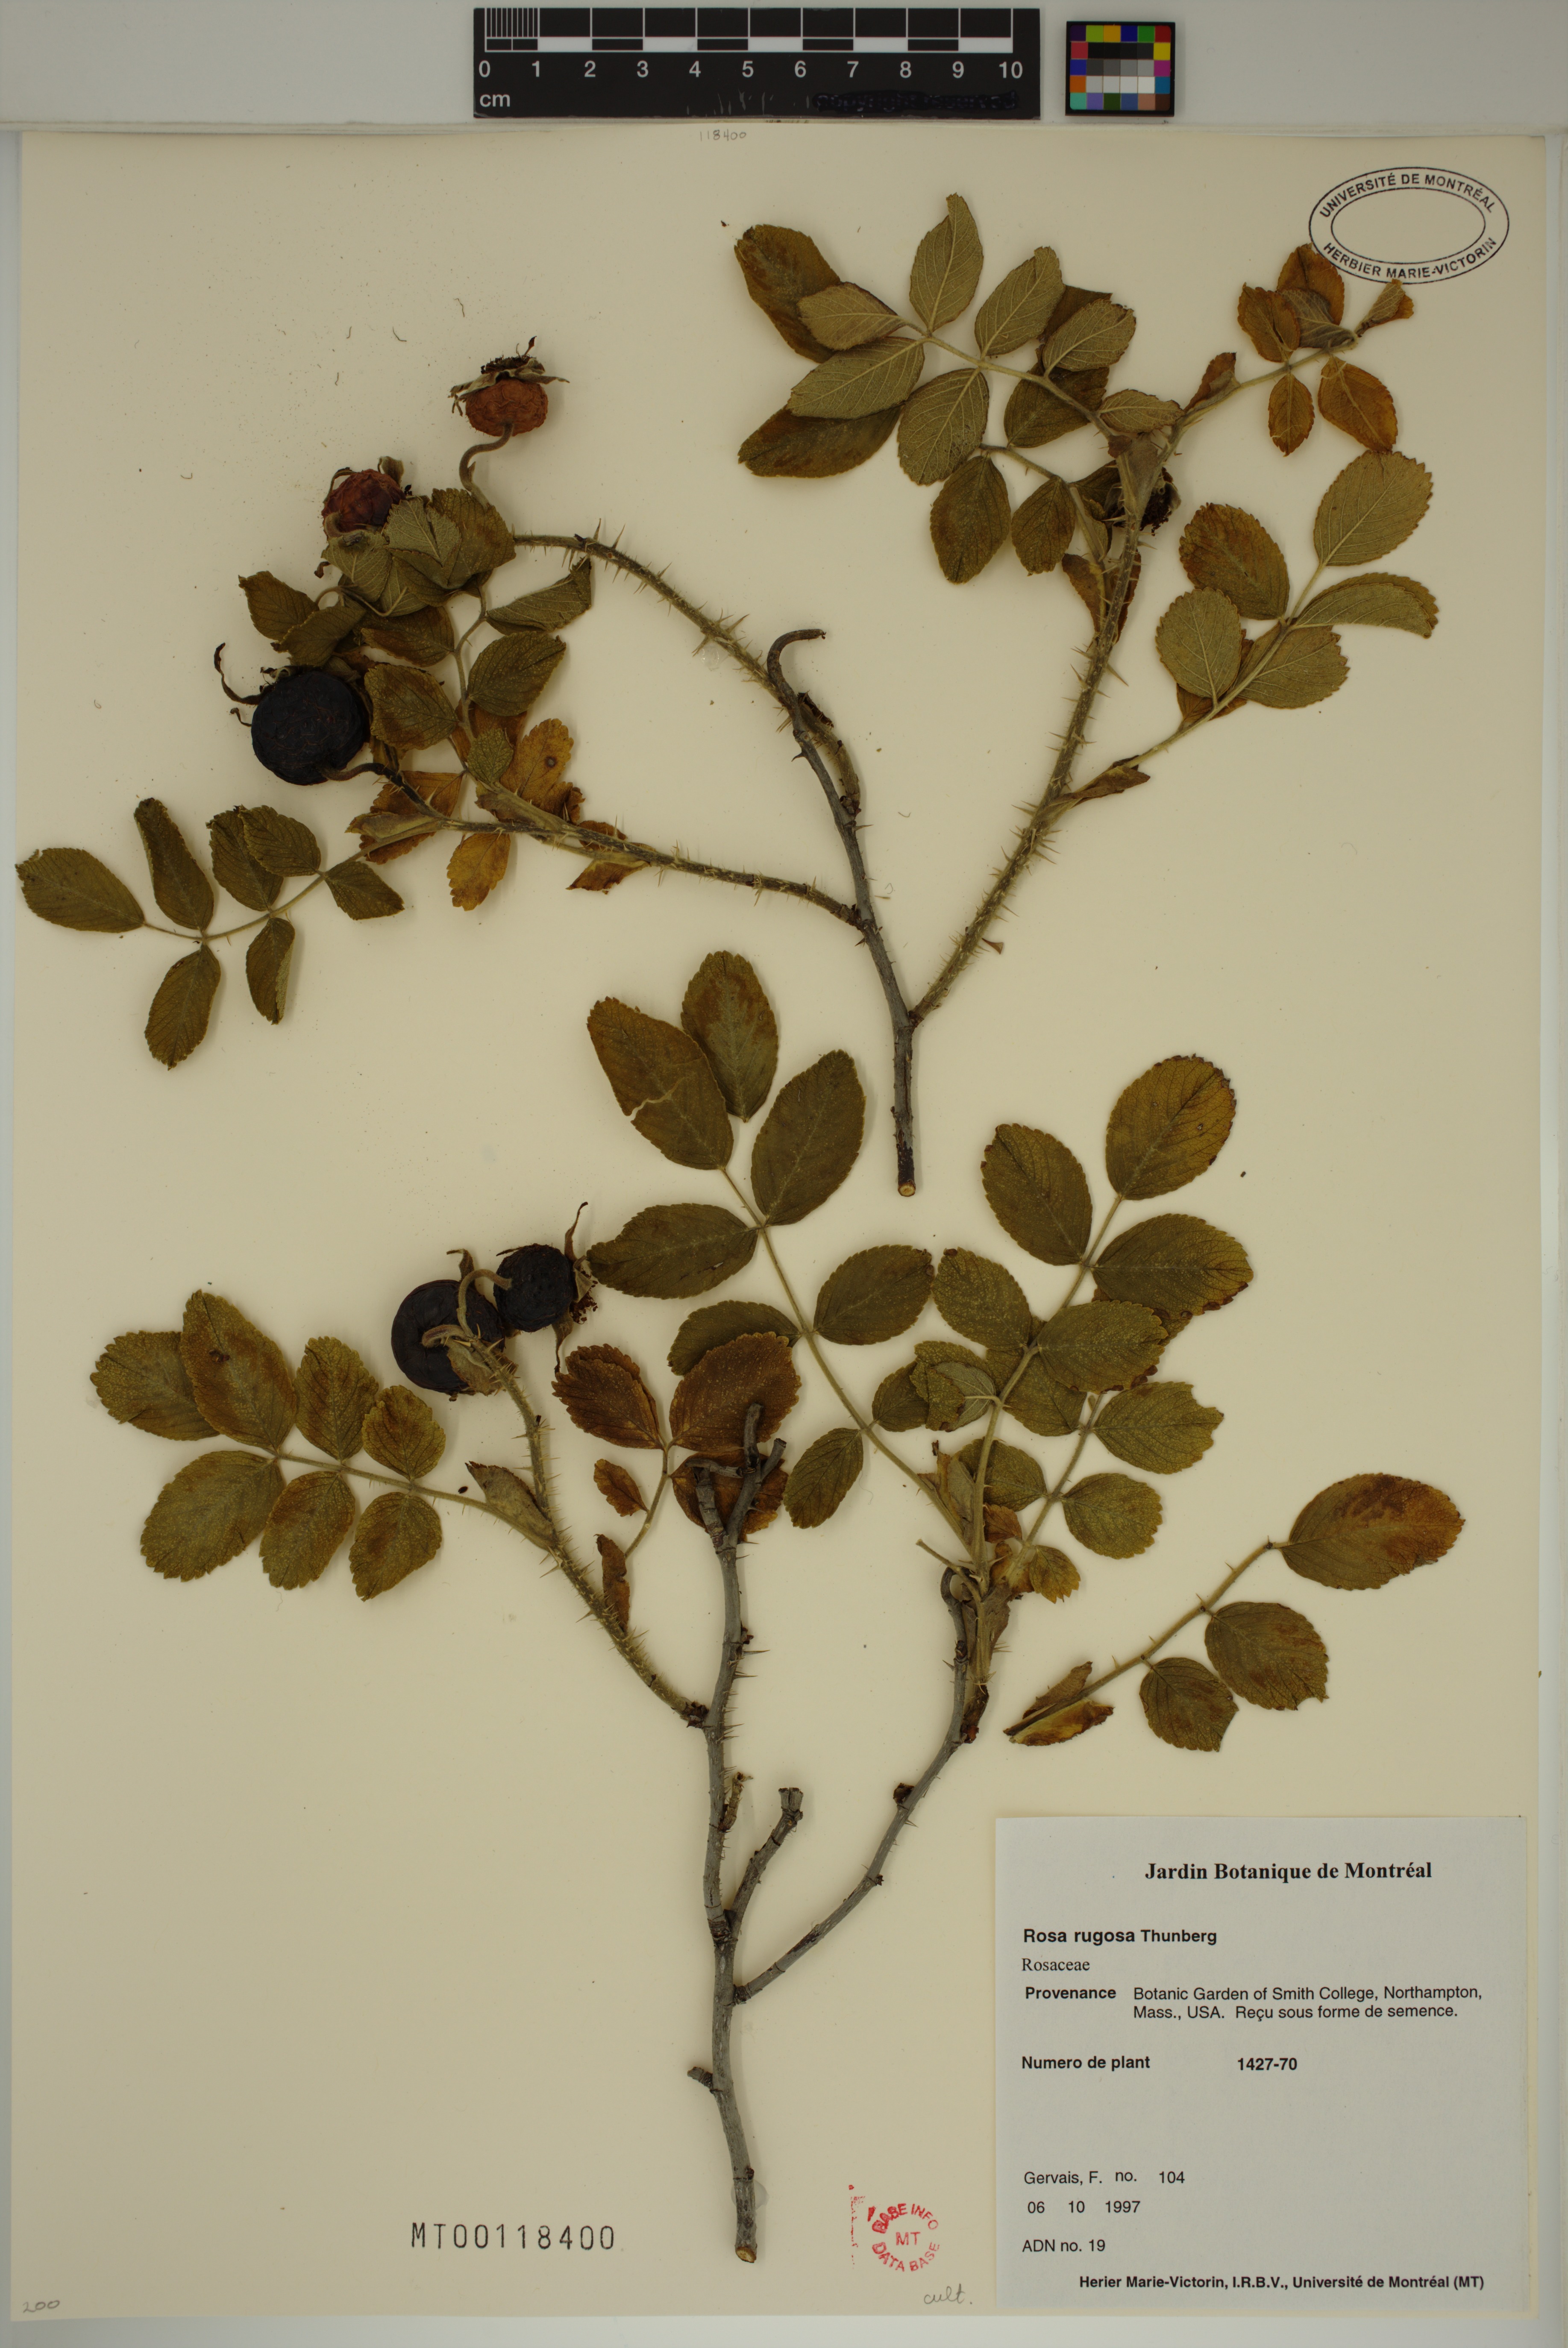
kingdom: Plantae
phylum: Tracheophyta
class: Magnoliopsida
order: Rosales
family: Rosaceae
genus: Rosa
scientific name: Rosa rugosa
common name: Japanese rose
